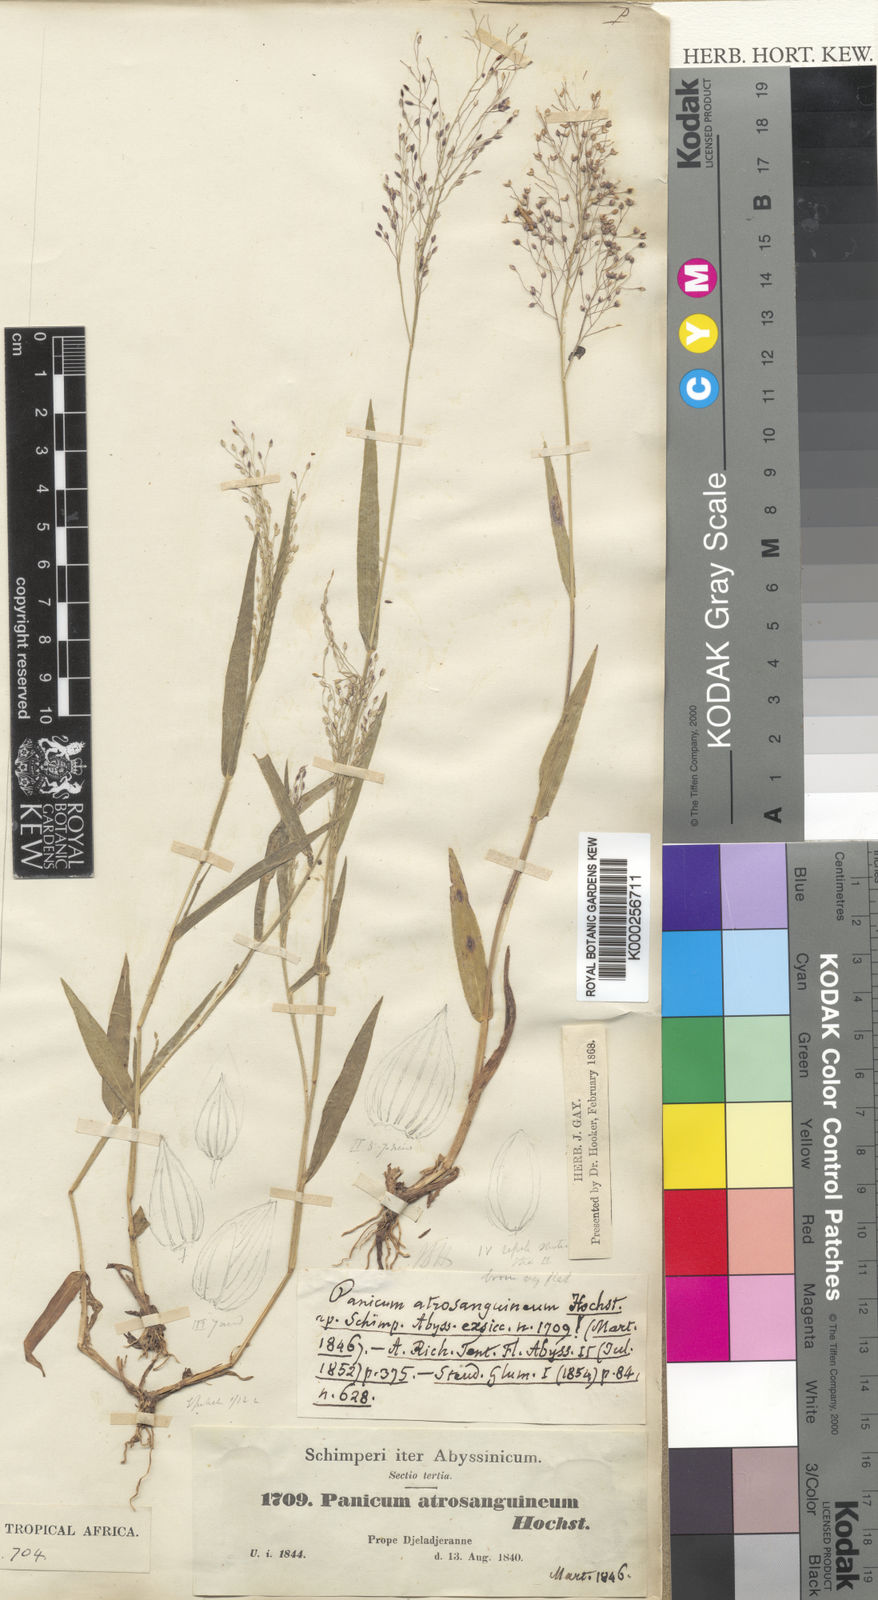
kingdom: Plantae
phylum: Tracheophyta
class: Liliopsida
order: Poales
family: Poaceae
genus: Panicum
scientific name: Panicum atrosanguineum
